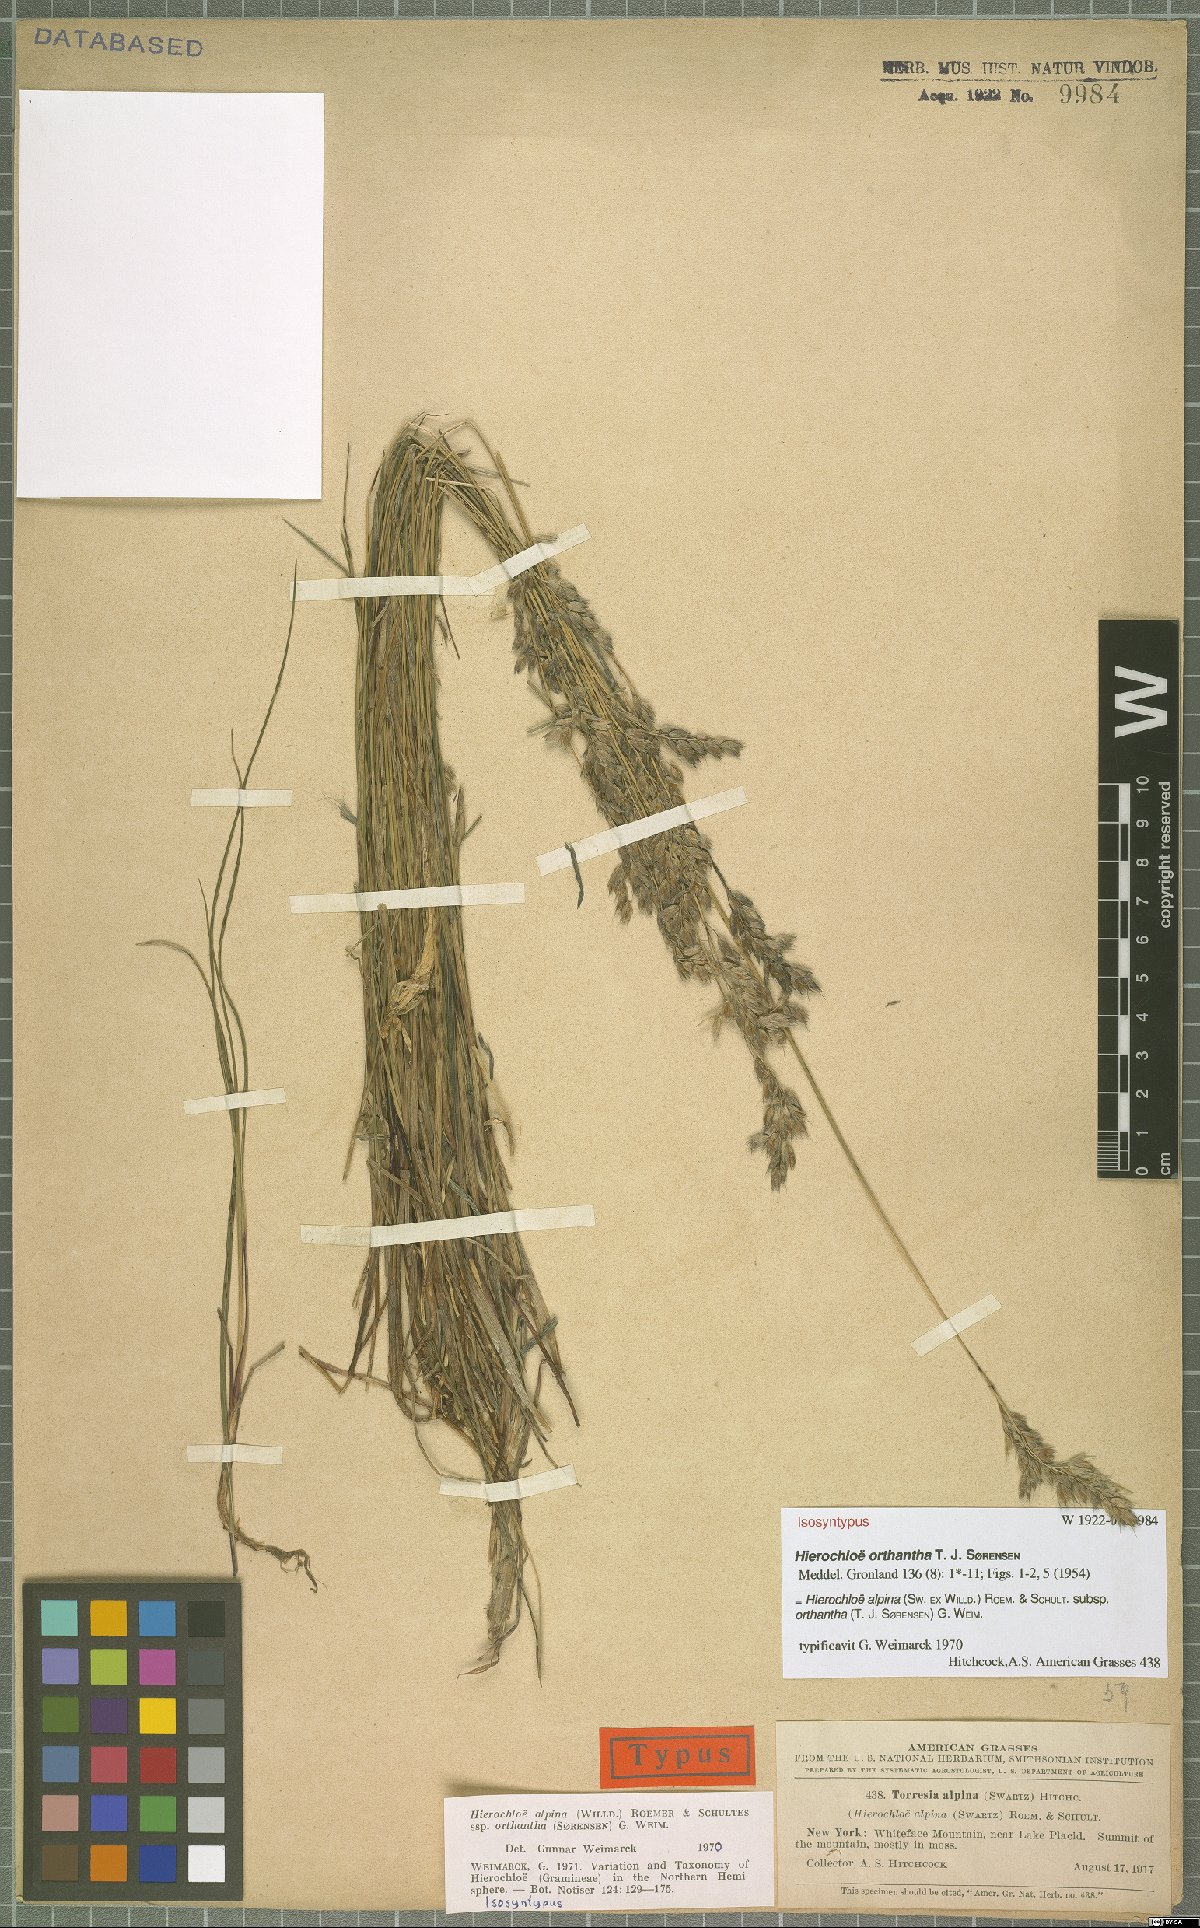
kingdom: Plantae
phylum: Tracheophyta
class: Liliopsida
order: Poales
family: Poaceae
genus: Anthoxanthum
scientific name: Anthoxanthum monticola
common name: Alpine sweetgrass
